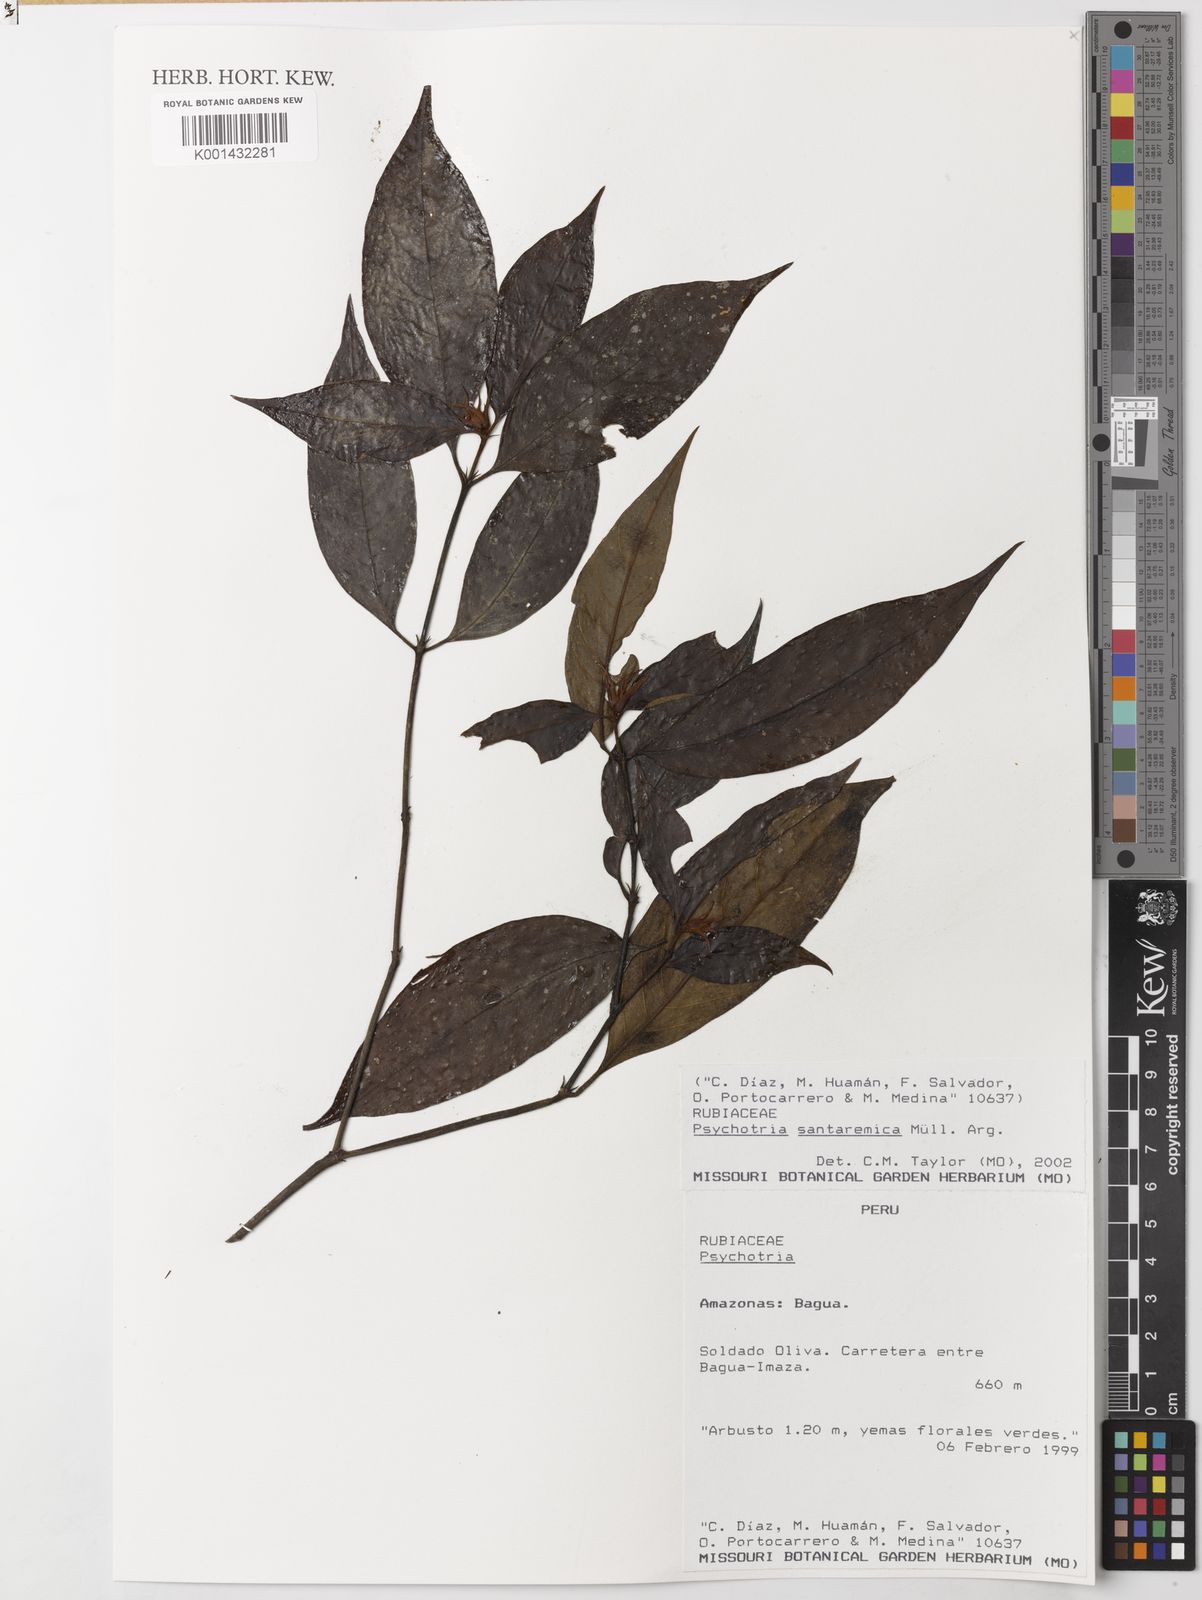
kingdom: Plantae
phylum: Tracheophyta
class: Magnoliopsida
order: Gentianales
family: Rubiaceae
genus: Psychotria
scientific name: Psychotria
